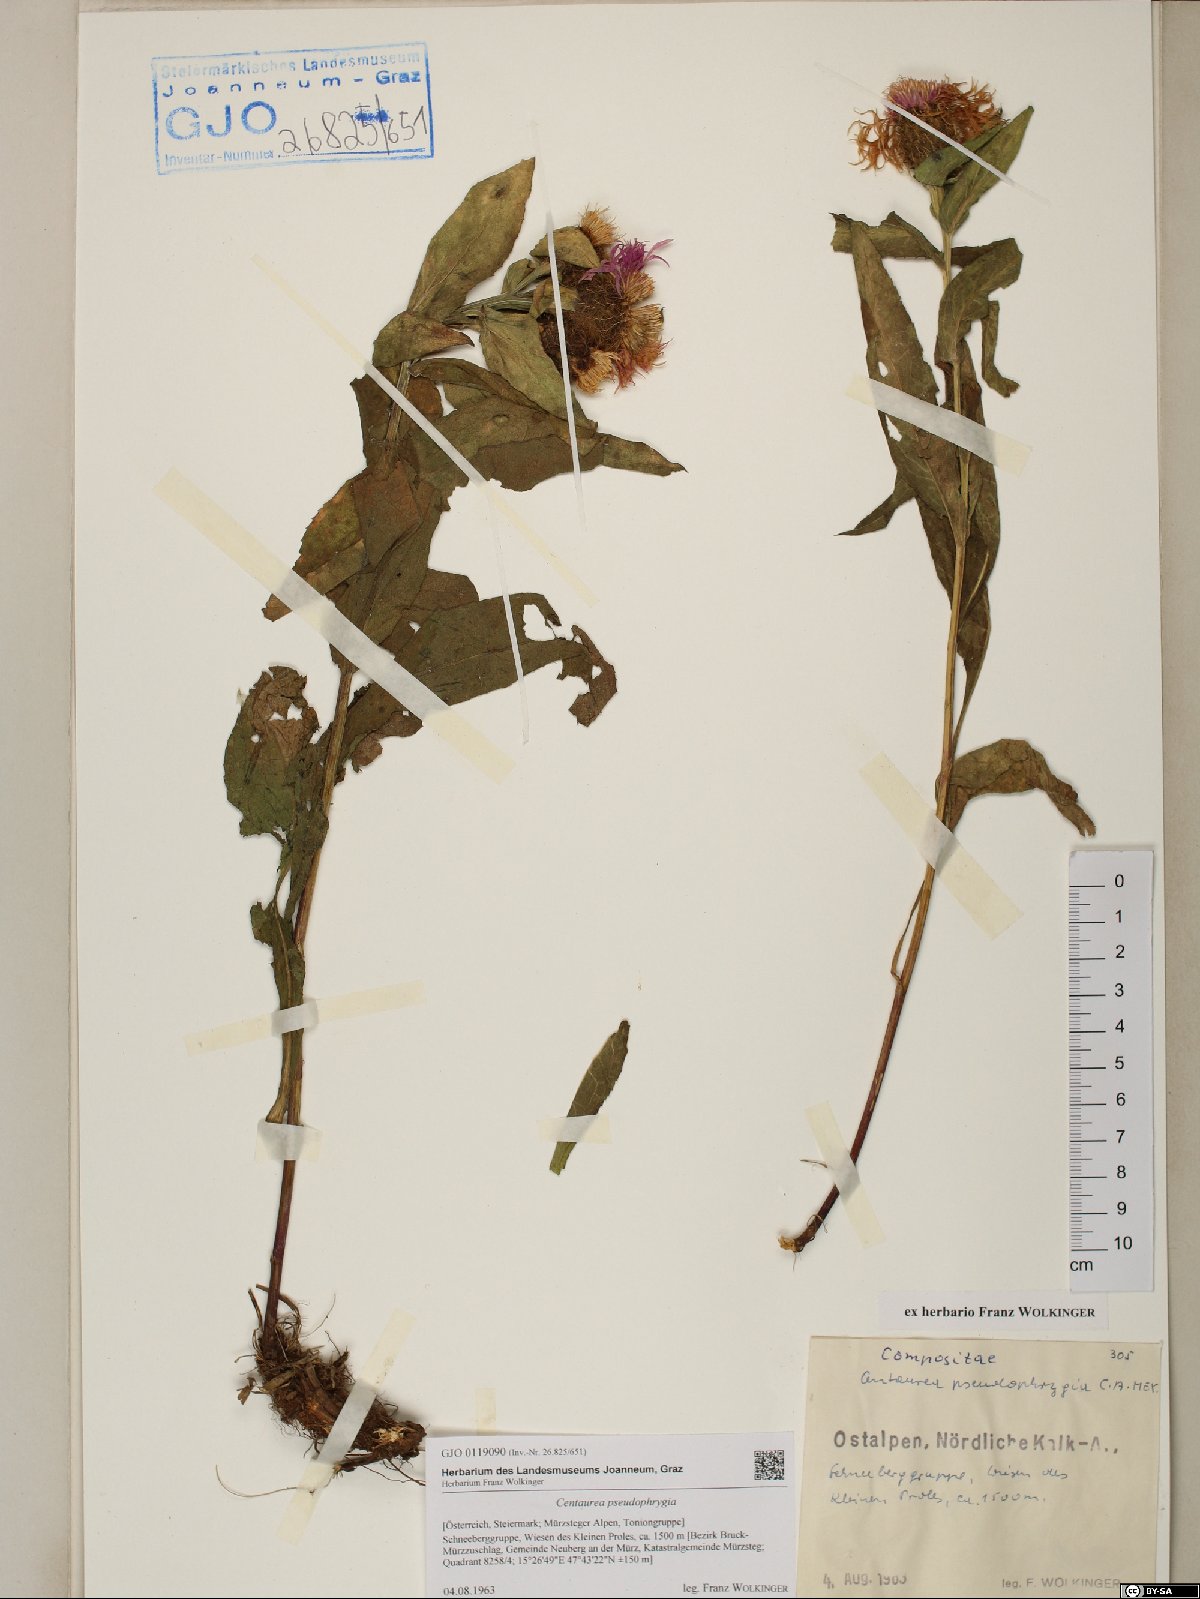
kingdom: Plantae
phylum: Tracheophyta
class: Magnoliopsida
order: Asterales
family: Asteraceae
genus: Centaurea
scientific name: Centaurea pseudophrygia
